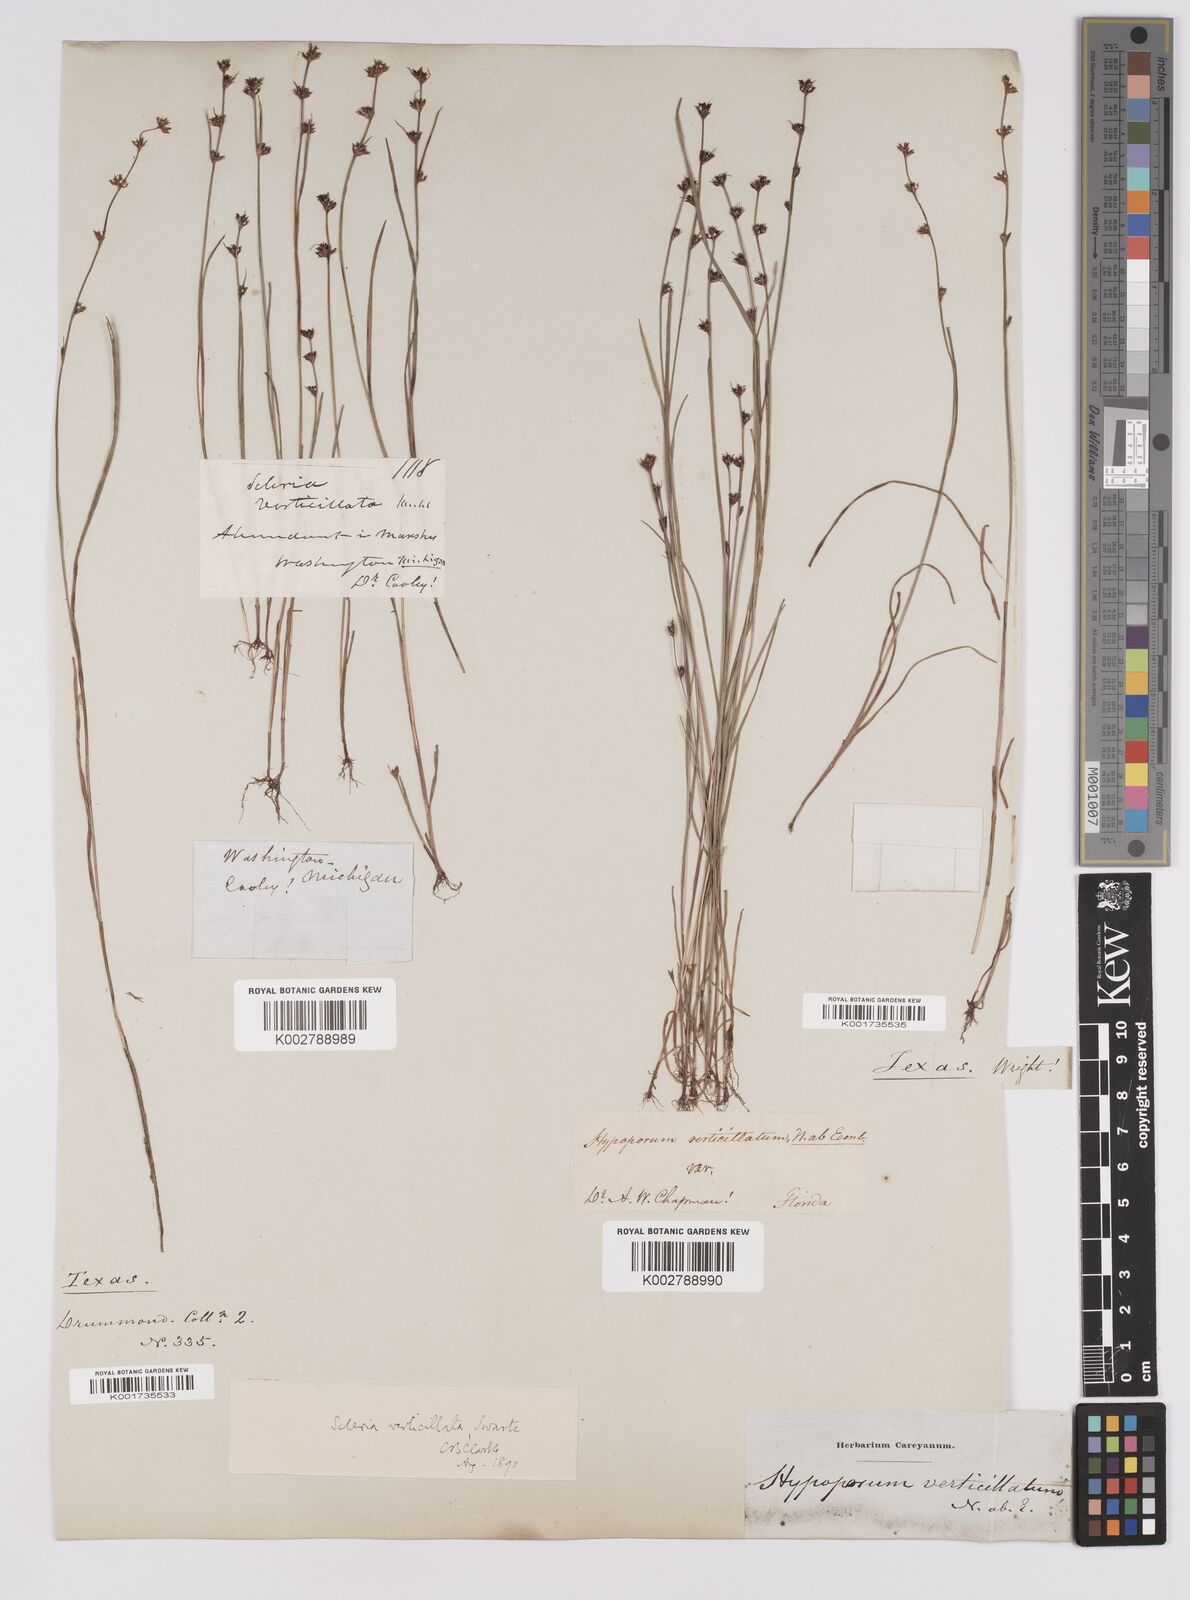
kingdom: Plantae
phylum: Tracheophyta
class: Liliopsida
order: Poales
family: Cyperaceae
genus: Scleria
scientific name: Scleria verticillata
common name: Low nutrush
